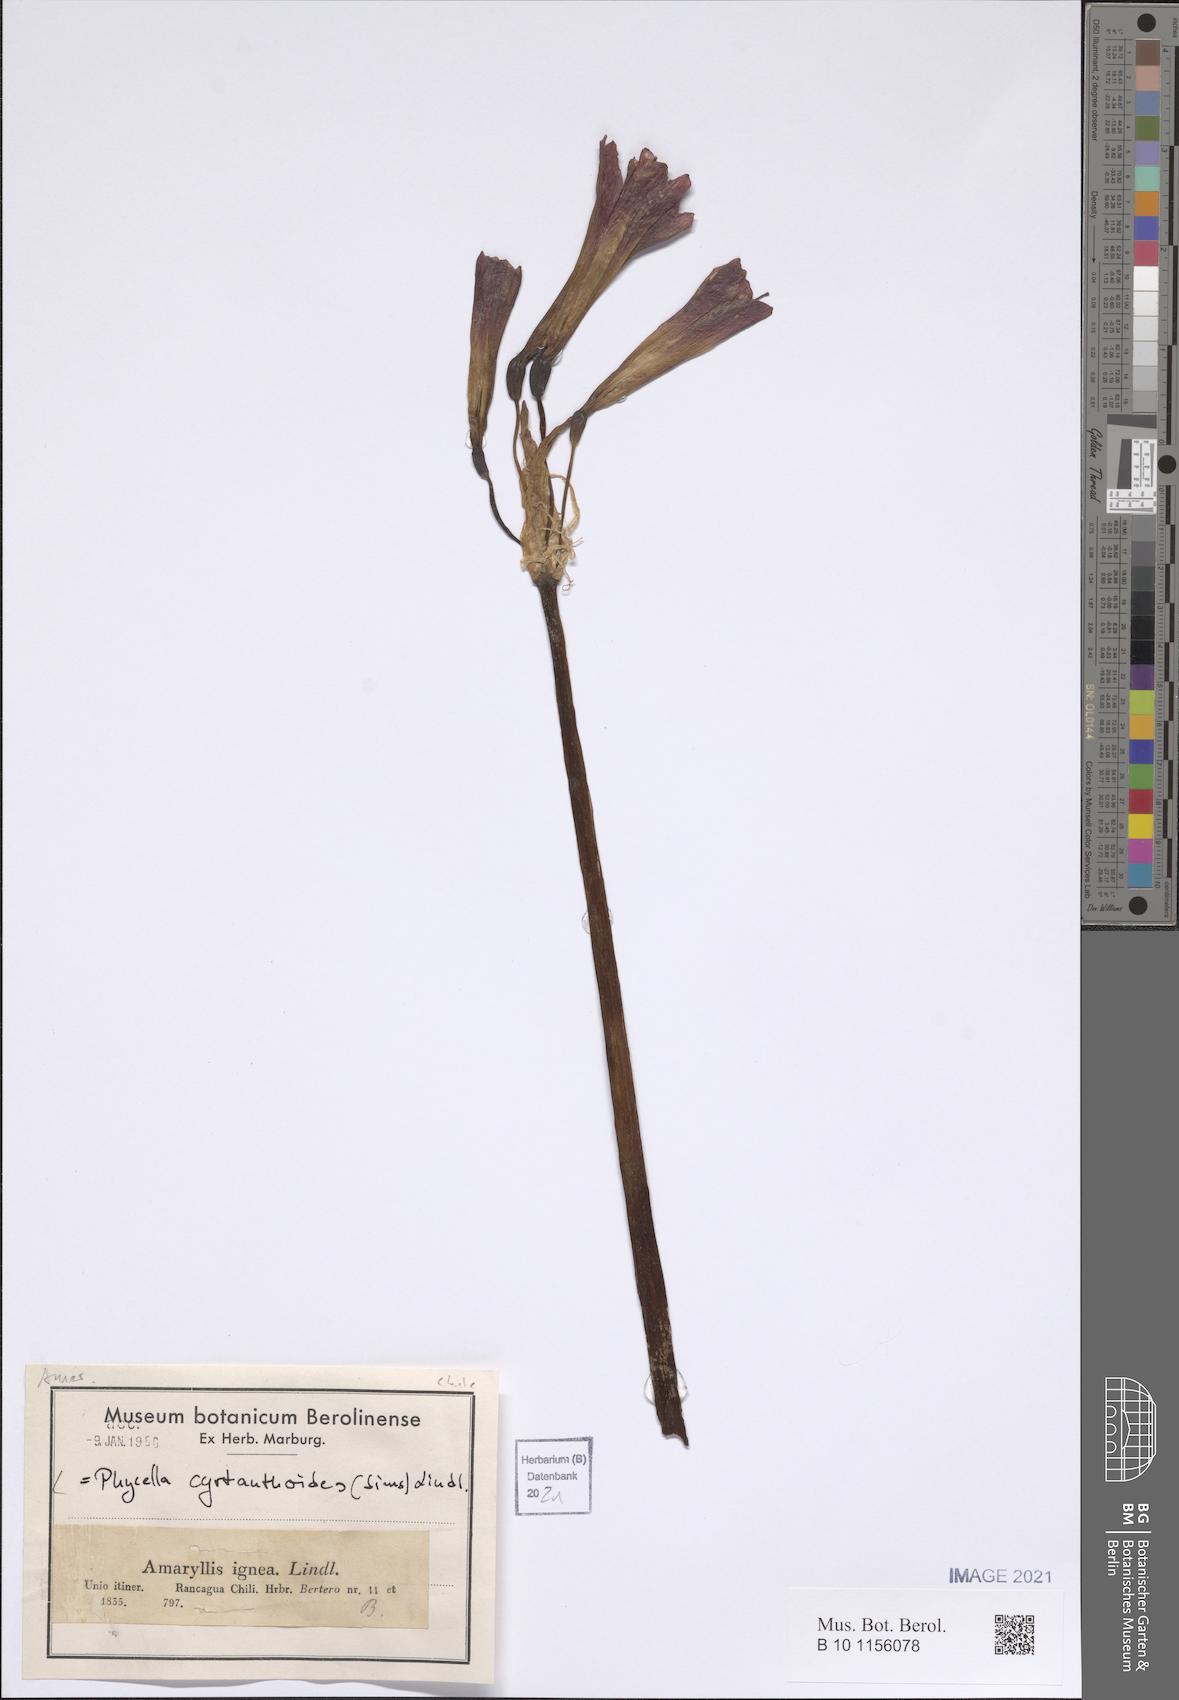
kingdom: Plantae
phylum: Tracheophyta
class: Liliopsida
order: Asparagales
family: Amaryllidaceae
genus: Phycella
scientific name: Phycella cyrtanthoides
